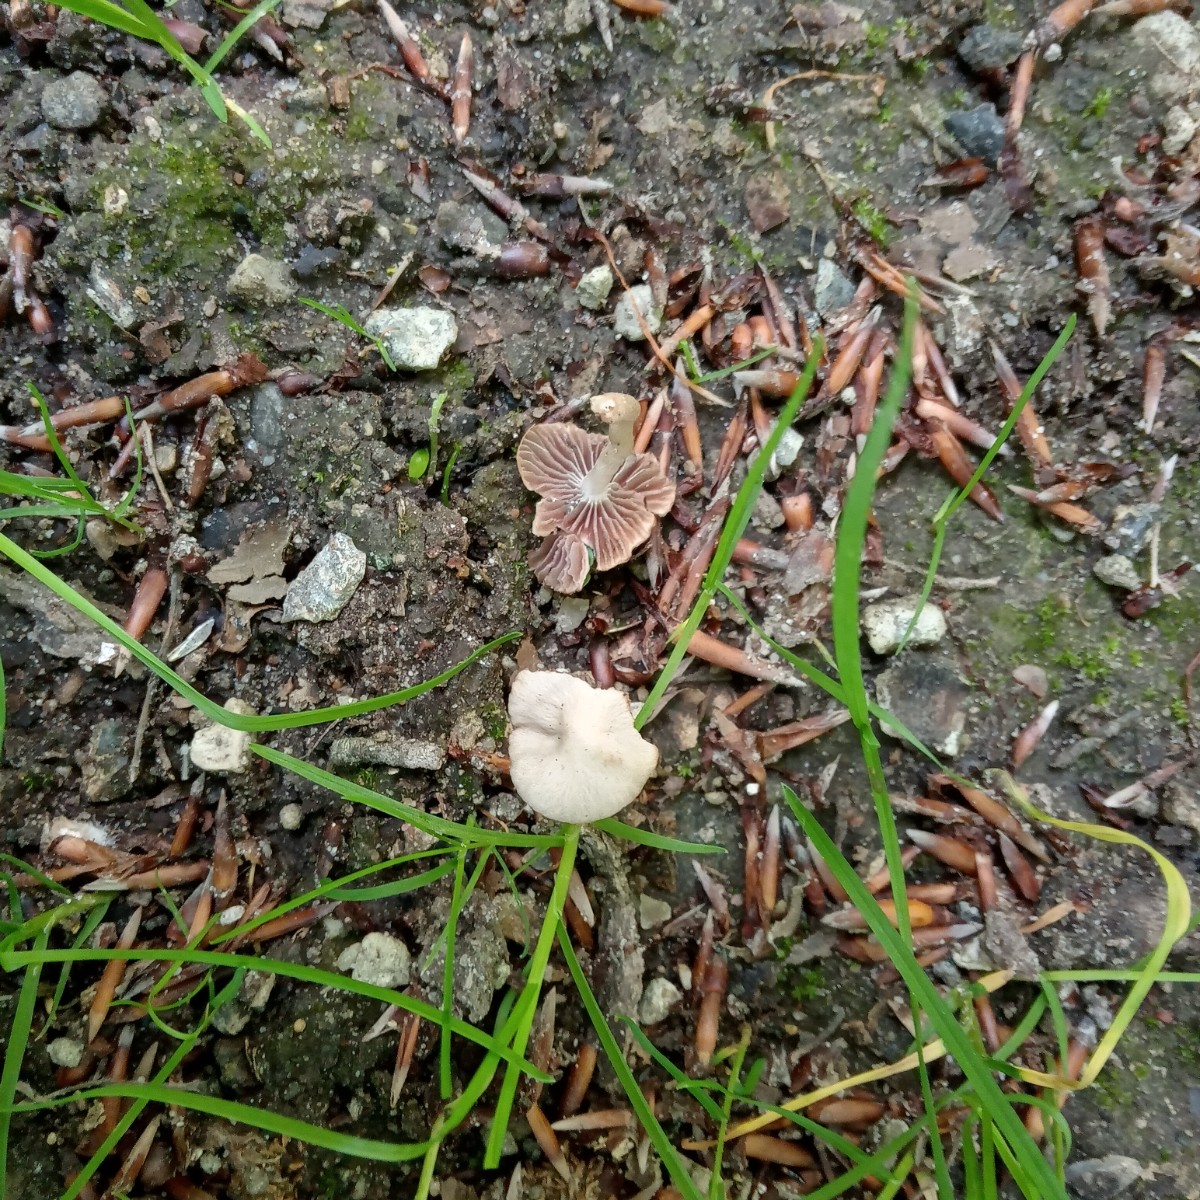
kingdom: Fungi
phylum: Basidiomycota
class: Agaricomycetes
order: Agaricales
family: Entolomataceae
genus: Entoloma
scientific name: Entoloma
